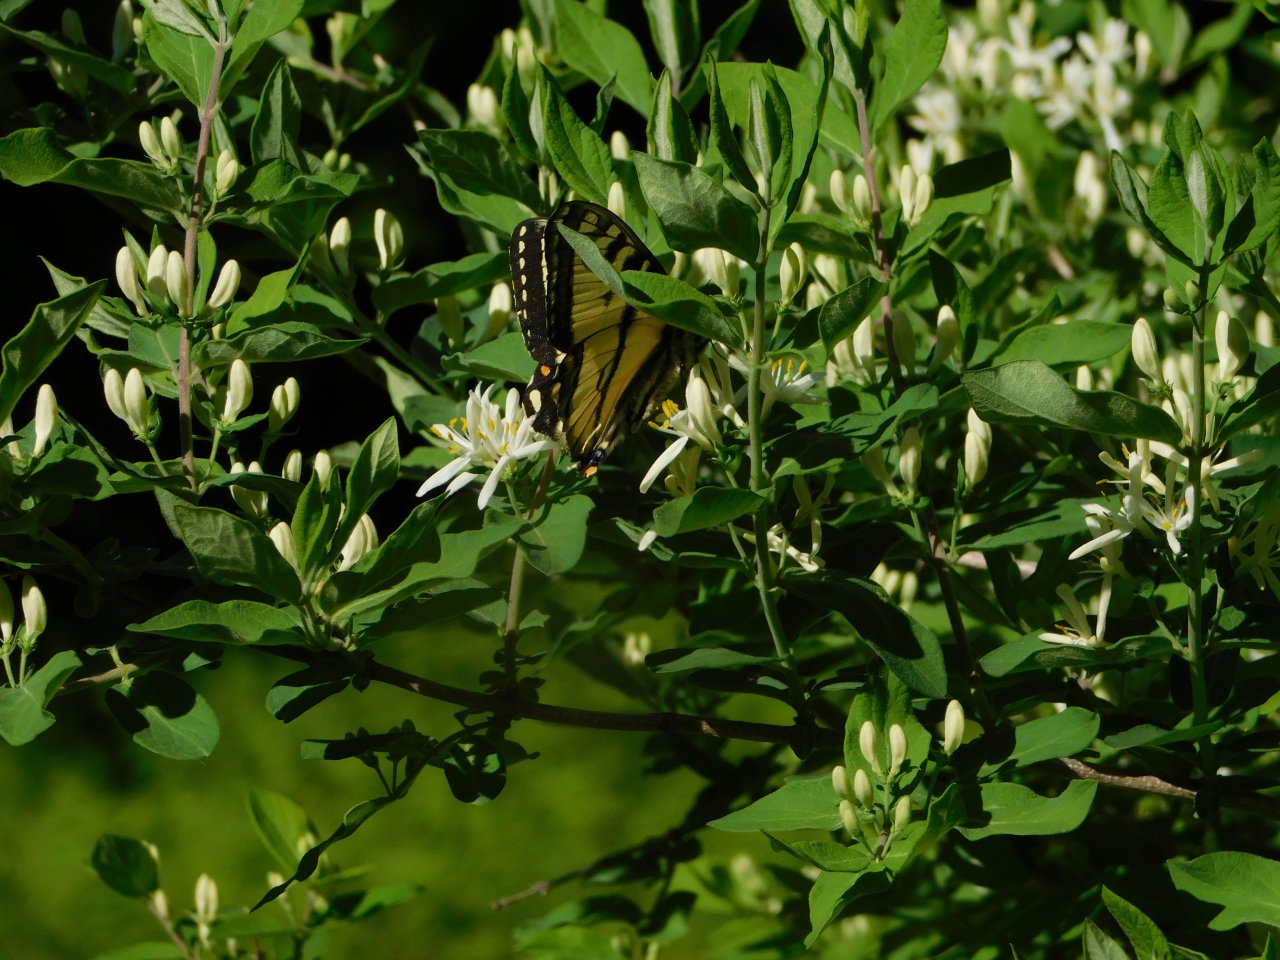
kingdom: Animalia
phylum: Arthropoda
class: Insecta
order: Lepidoptera
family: Papilionidae
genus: Pterourus
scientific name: Pterourus canadensis
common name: Canadian Tiger Swallowtail
